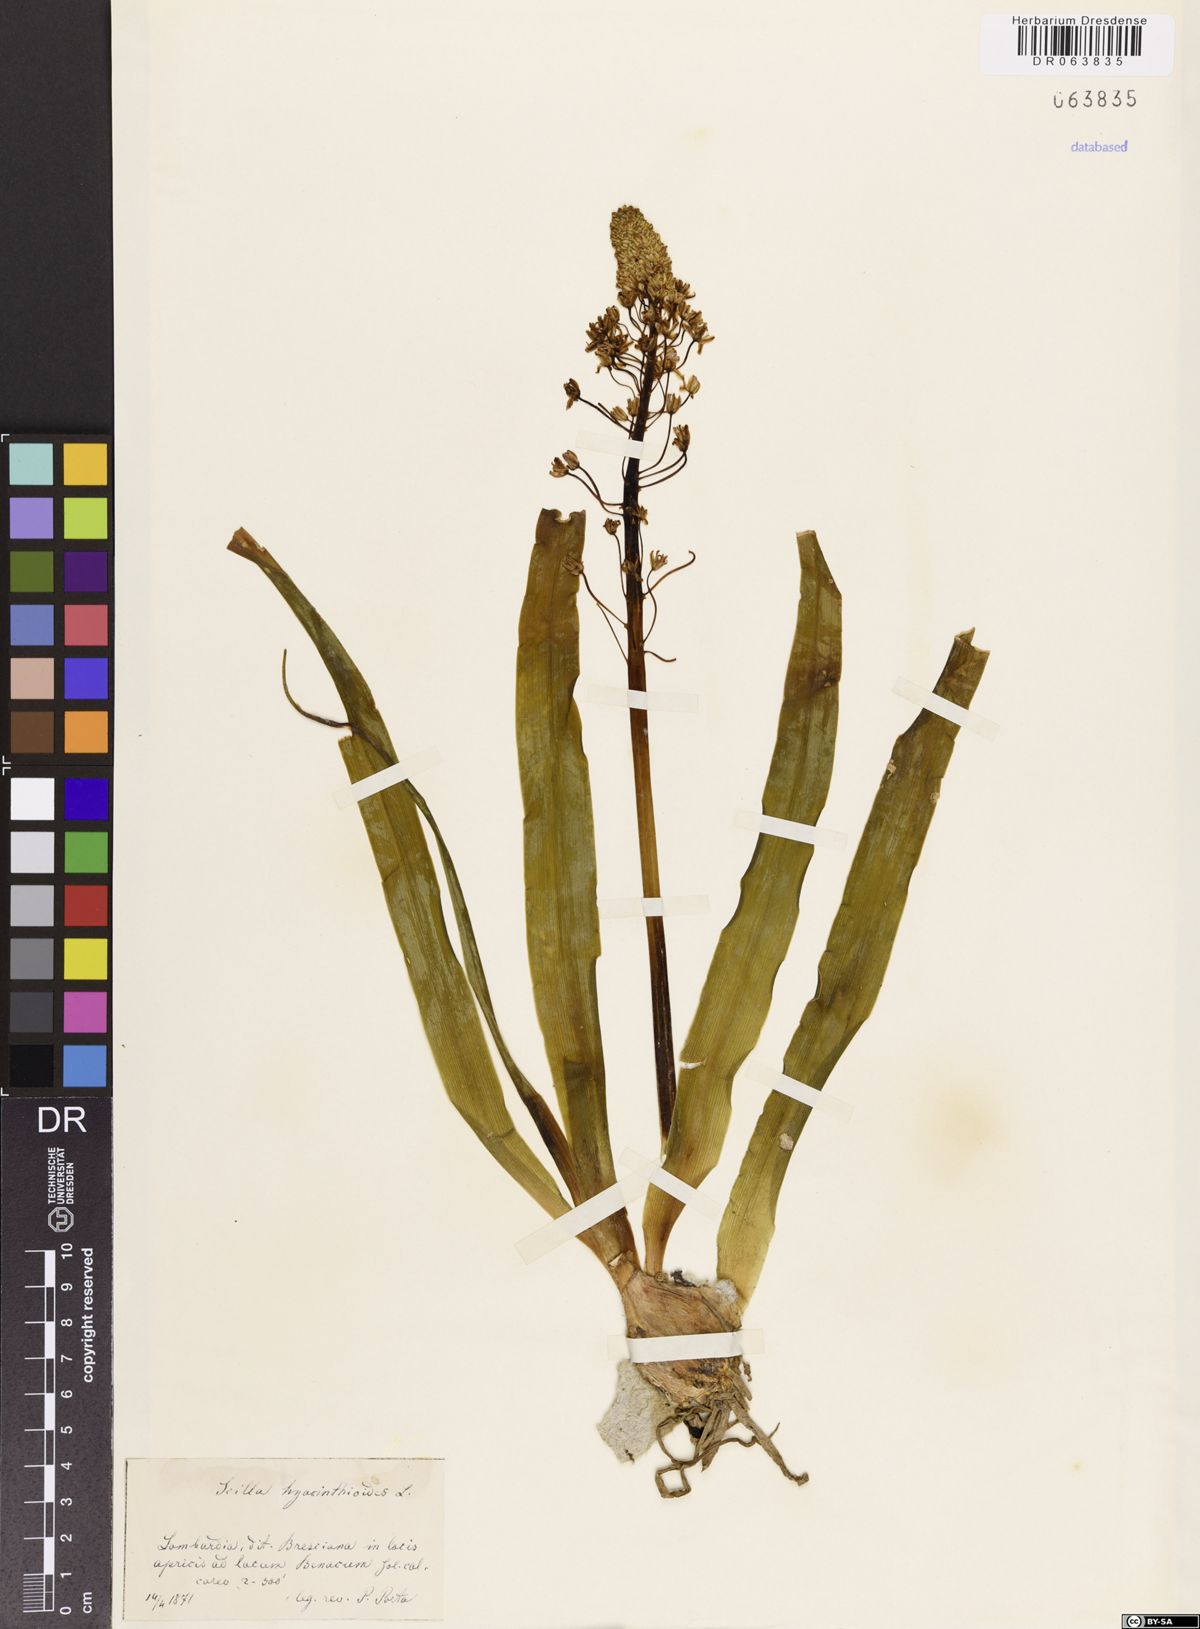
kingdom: Plantae
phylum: Tracheophyta
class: Liliopsida
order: Asparagales
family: Asparagaceae
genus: Scilla
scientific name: Scilla hyacinthoides
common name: Scilla
